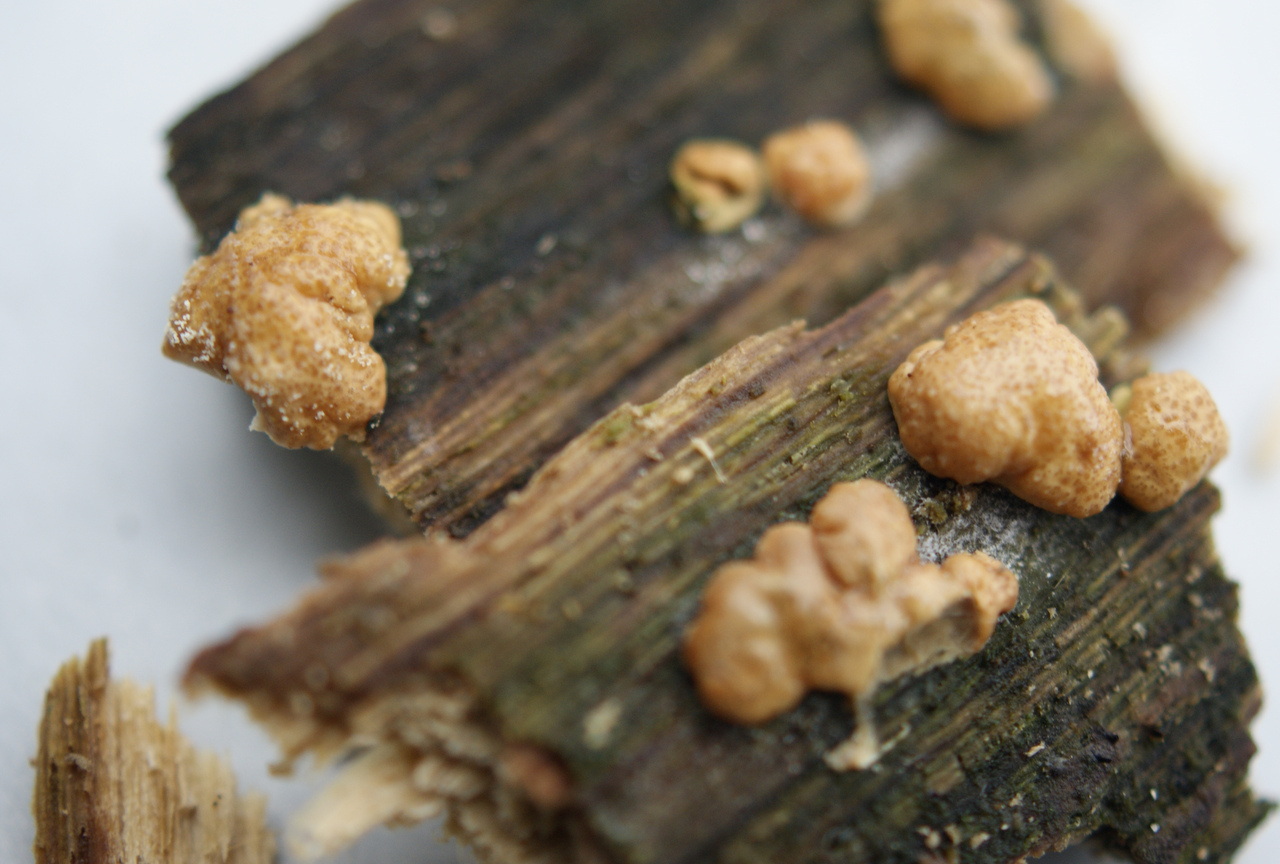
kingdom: Fungi
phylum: Ascomycota
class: Sordariomycetes
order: Hypocreales
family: Hypocreaceae
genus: Trichoderma
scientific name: Trichoderma europaeum
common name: rosabrun kødkerne
